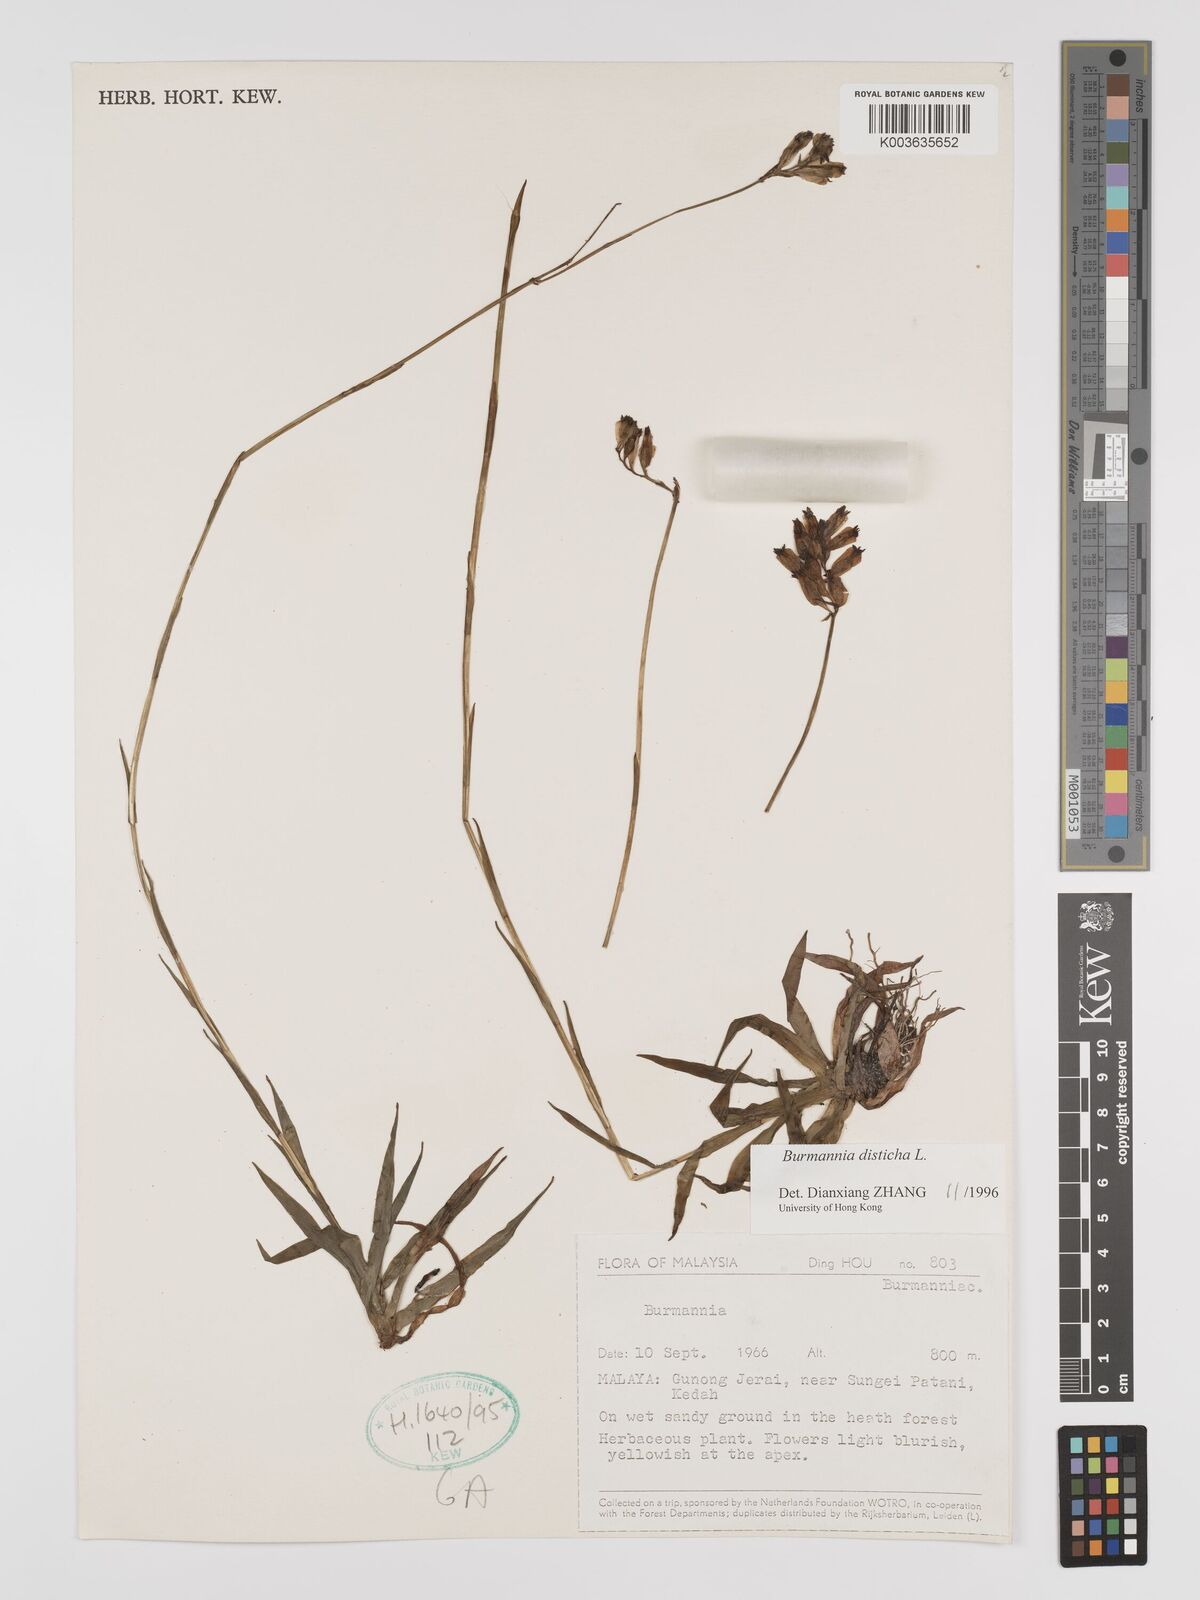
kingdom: Plantae
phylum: Tracheophyta
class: Liliopsida
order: Dioscoreales
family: Burmanniaceae
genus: Burmannia
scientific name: Burmannia disticha
